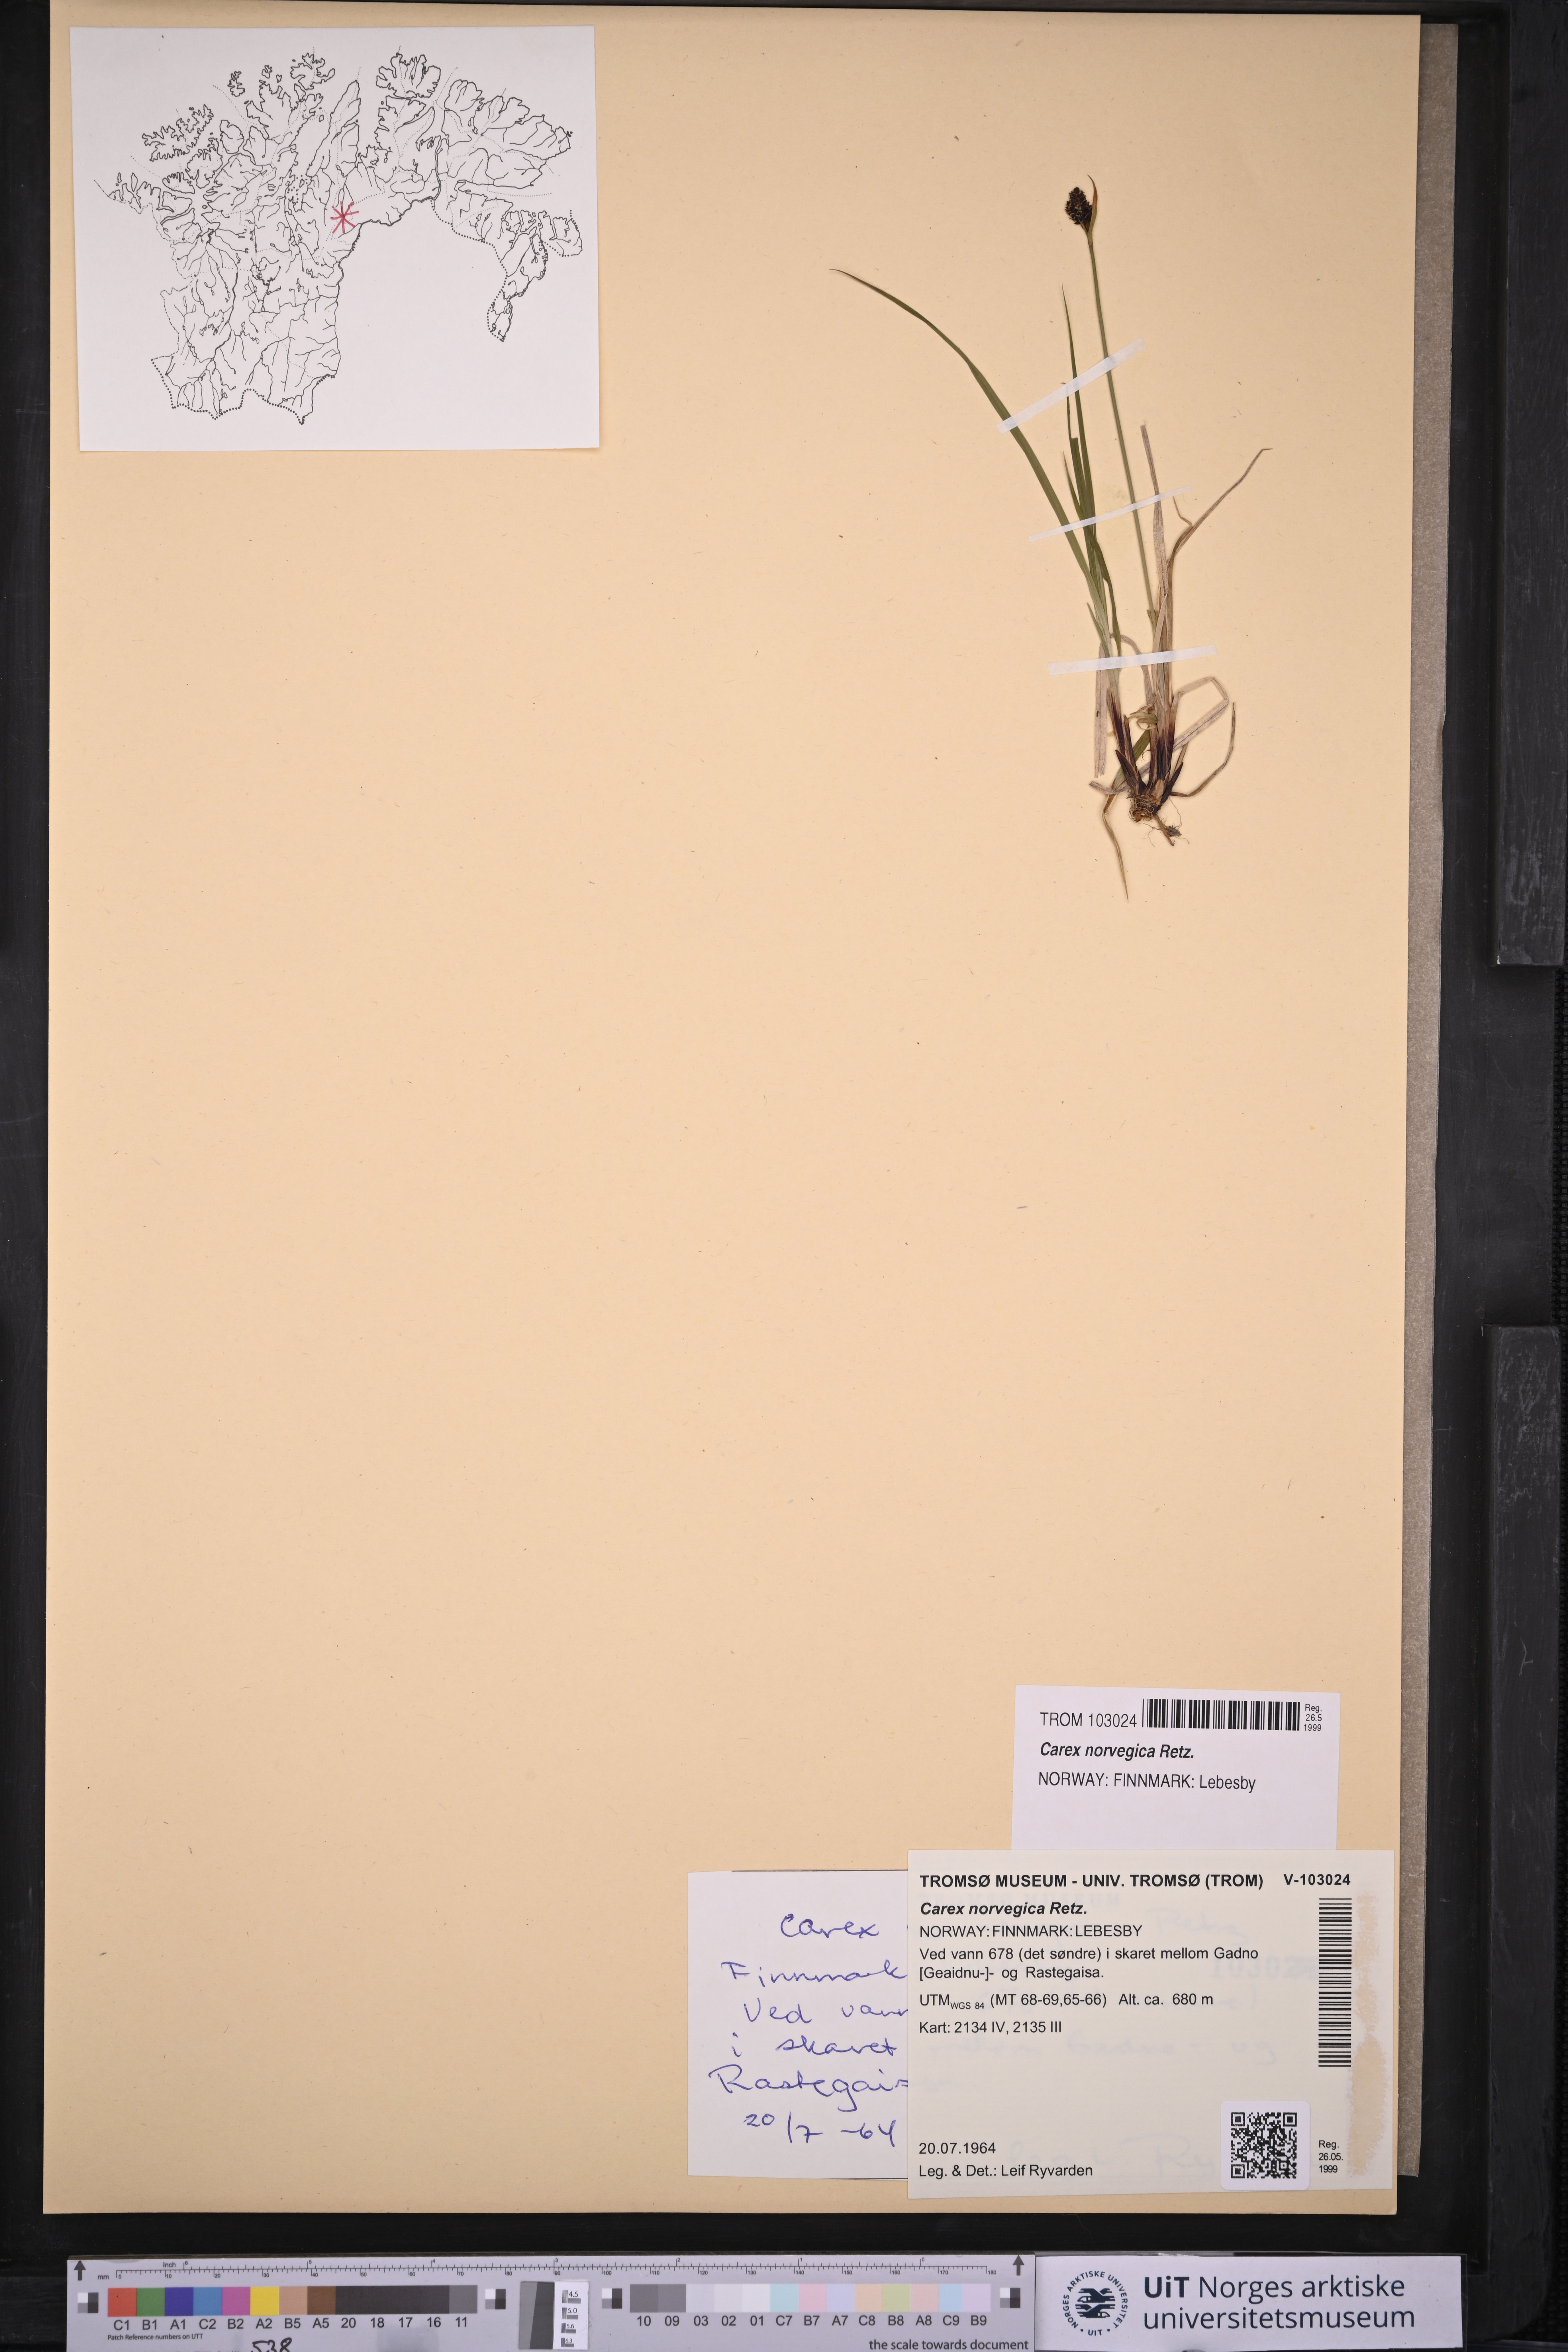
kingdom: Plantae
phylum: Tracheophyta
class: Liliopsida
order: Poales
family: Cyperaceae
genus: Carex
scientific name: Carex norvegica
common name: Close-headed alpine-sedge
